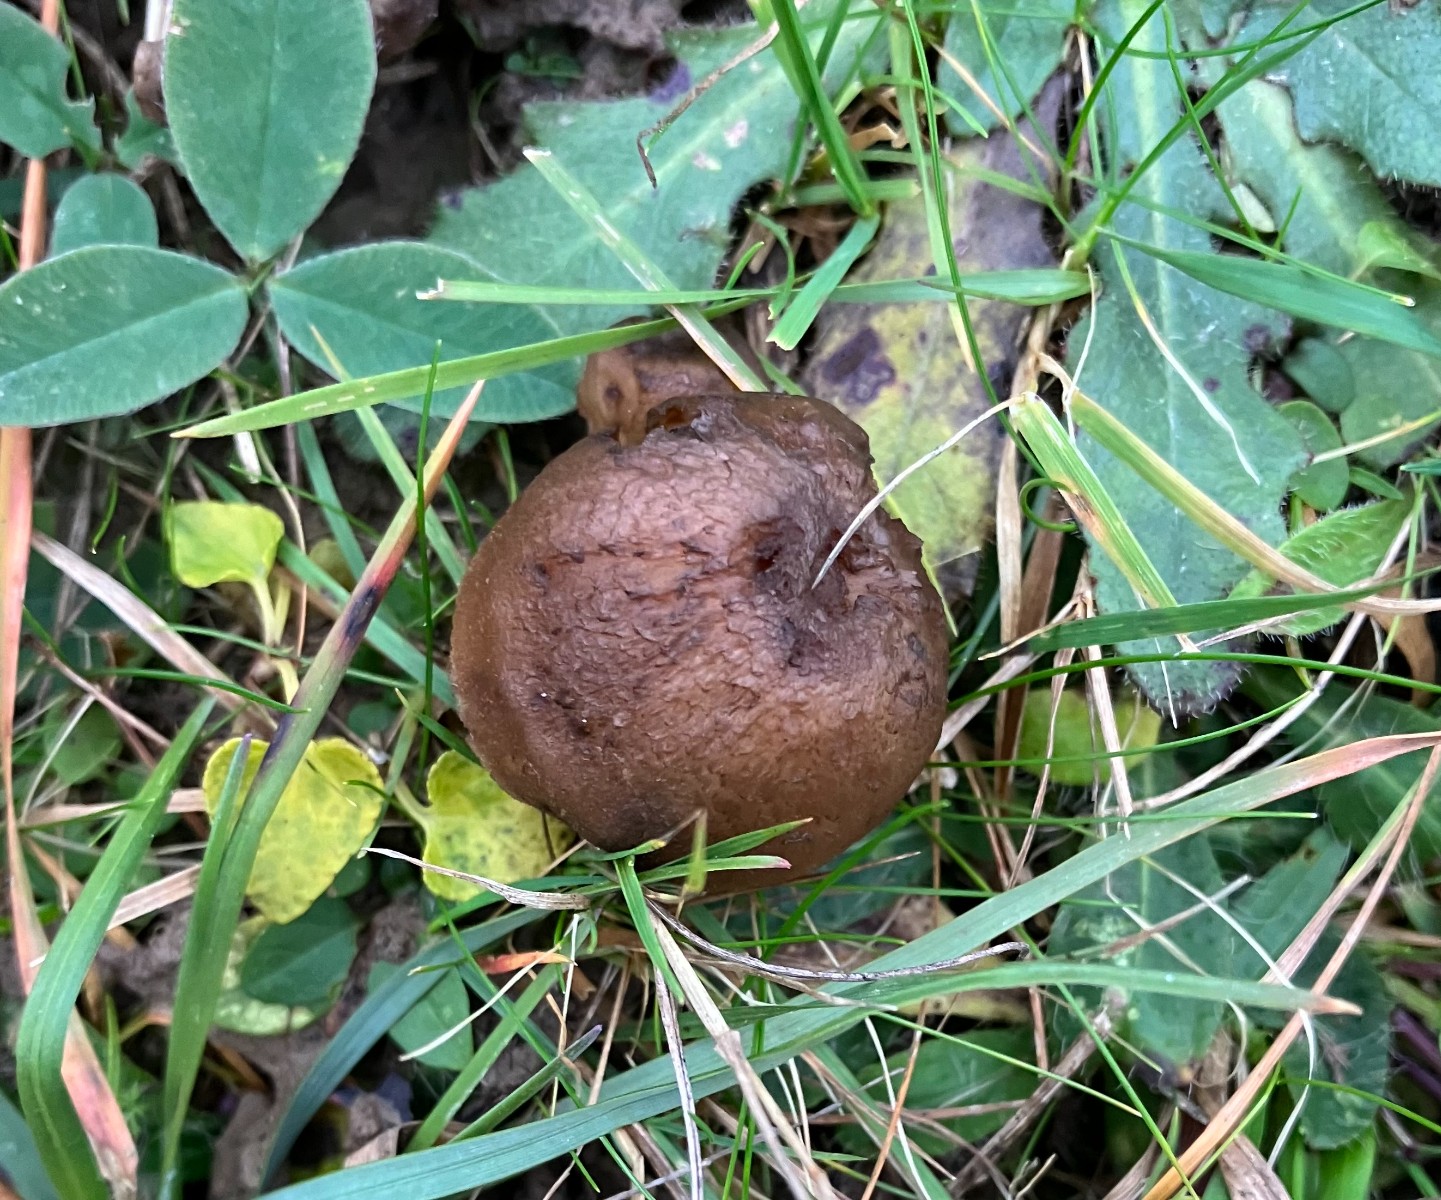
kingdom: Fungi
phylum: Basidiomycota
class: Agaricomycetes
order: Agaricales
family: Hygrophoraceae
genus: Hygrocybe
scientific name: Hygrocybe ingrata
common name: Jensens vokshat
